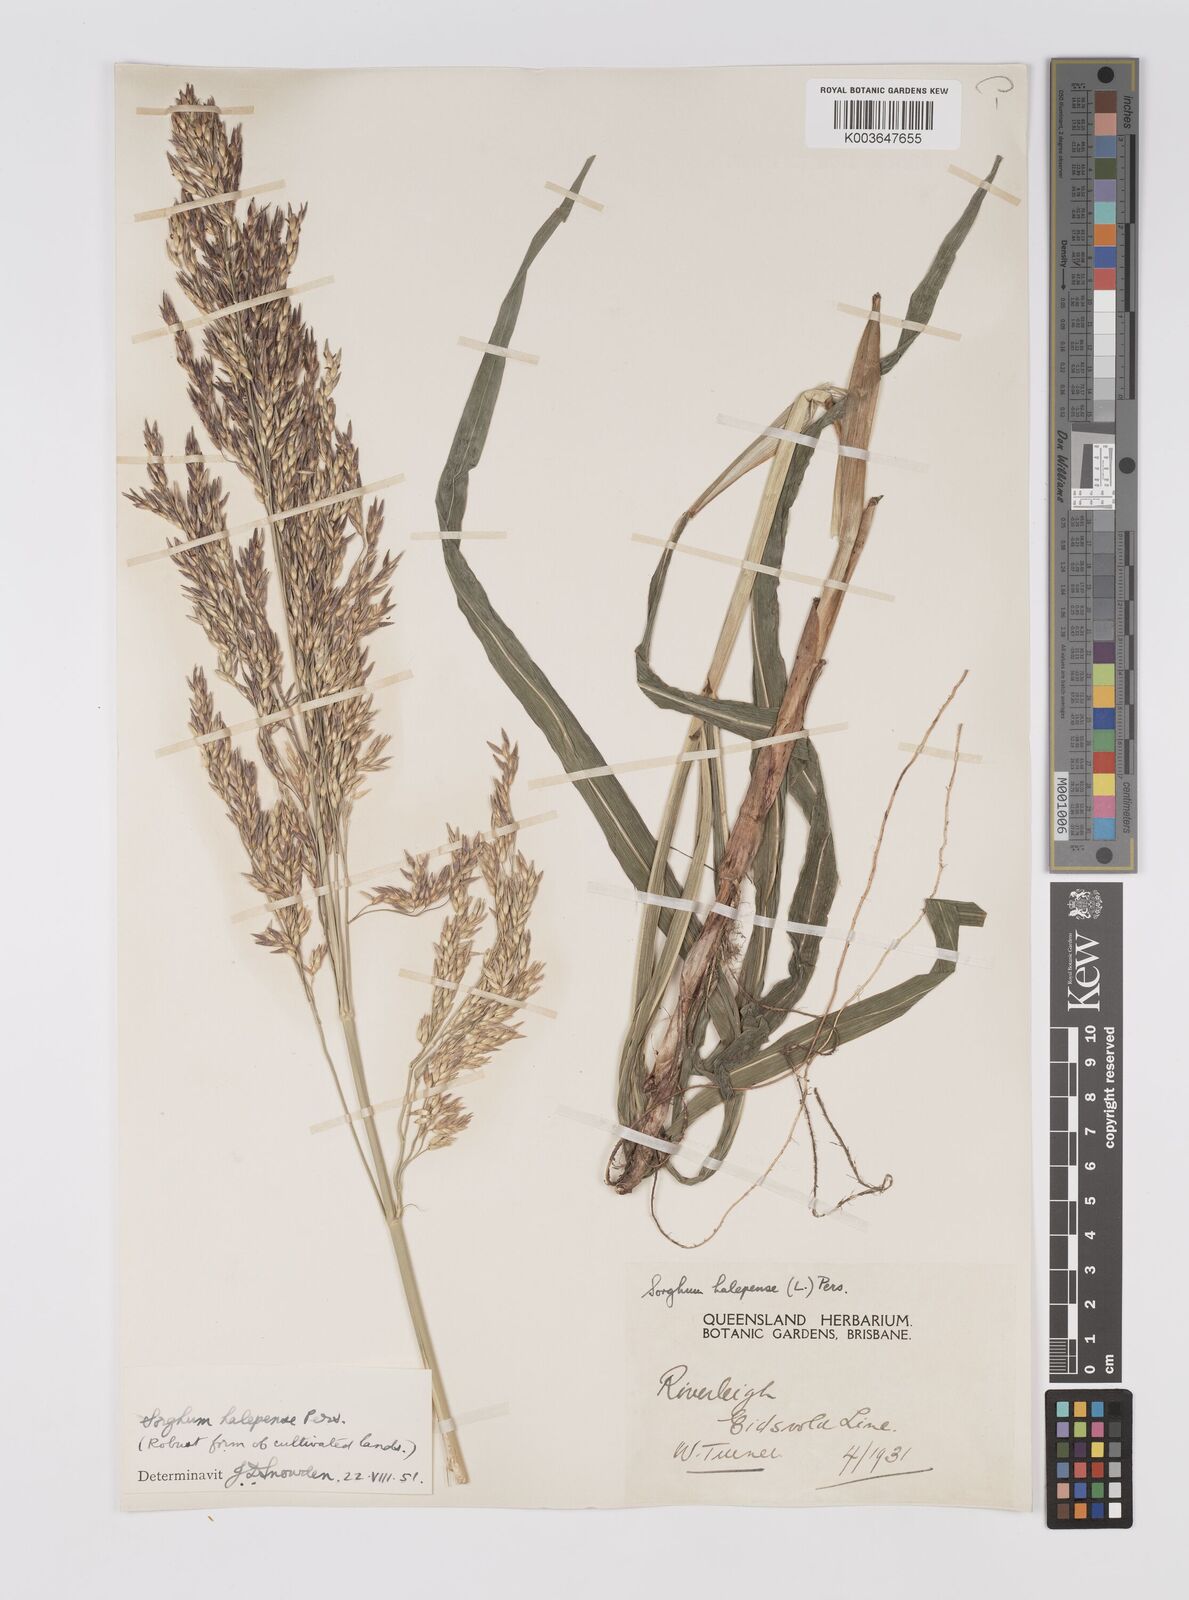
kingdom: Plantae
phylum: Tracheophyta
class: Liliopsida
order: Poales
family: Poaceae
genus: Sorghum
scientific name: Sorghum halepense
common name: Johnson-grass
